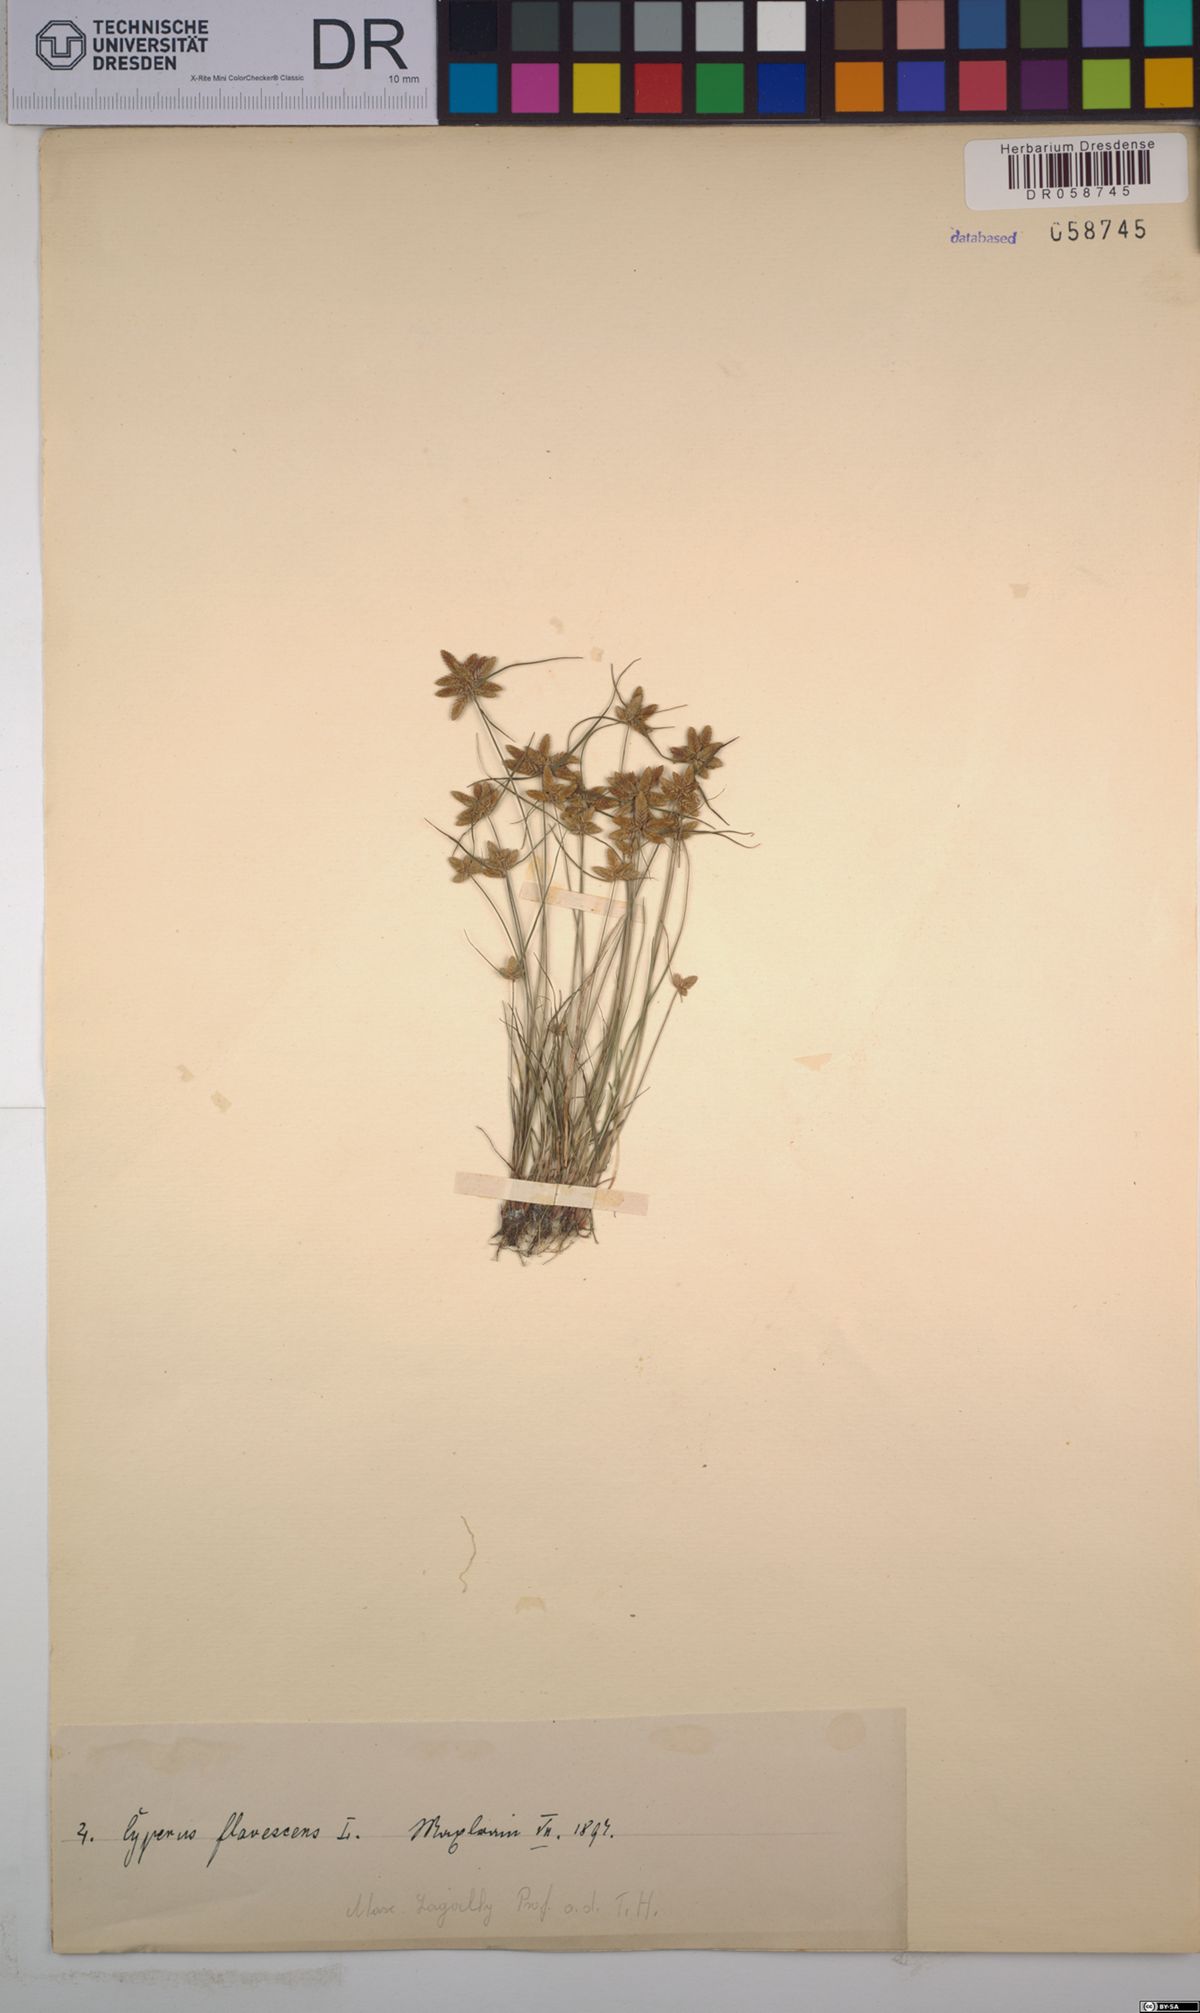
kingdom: Plantae
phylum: Tracheophyta
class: Liliopsida
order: Poales
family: Cyperaceae
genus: Cyperus
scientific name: Cyperus flavescens
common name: Yellow galingale
